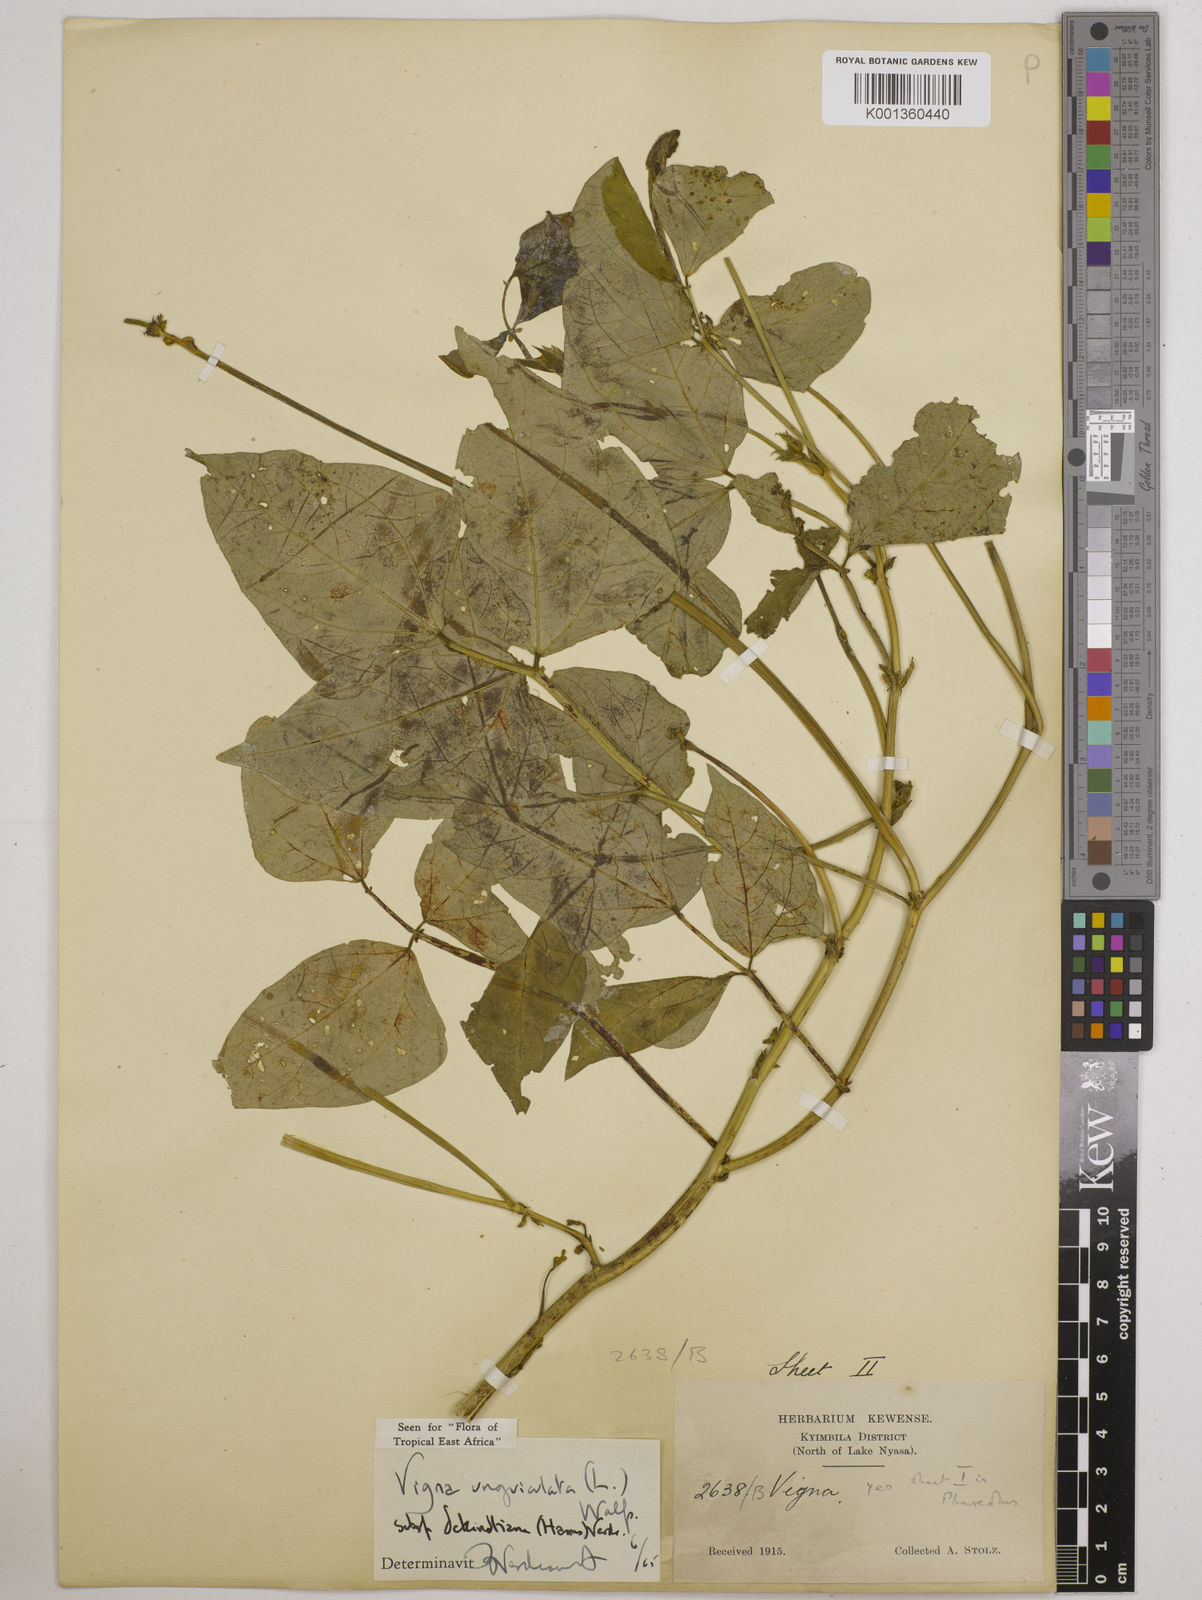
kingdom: Plantae
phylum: Tracheophyta
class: Magnoliopsida
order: Fabales
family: Fabaceae
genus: Vigna
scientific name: Vigna
